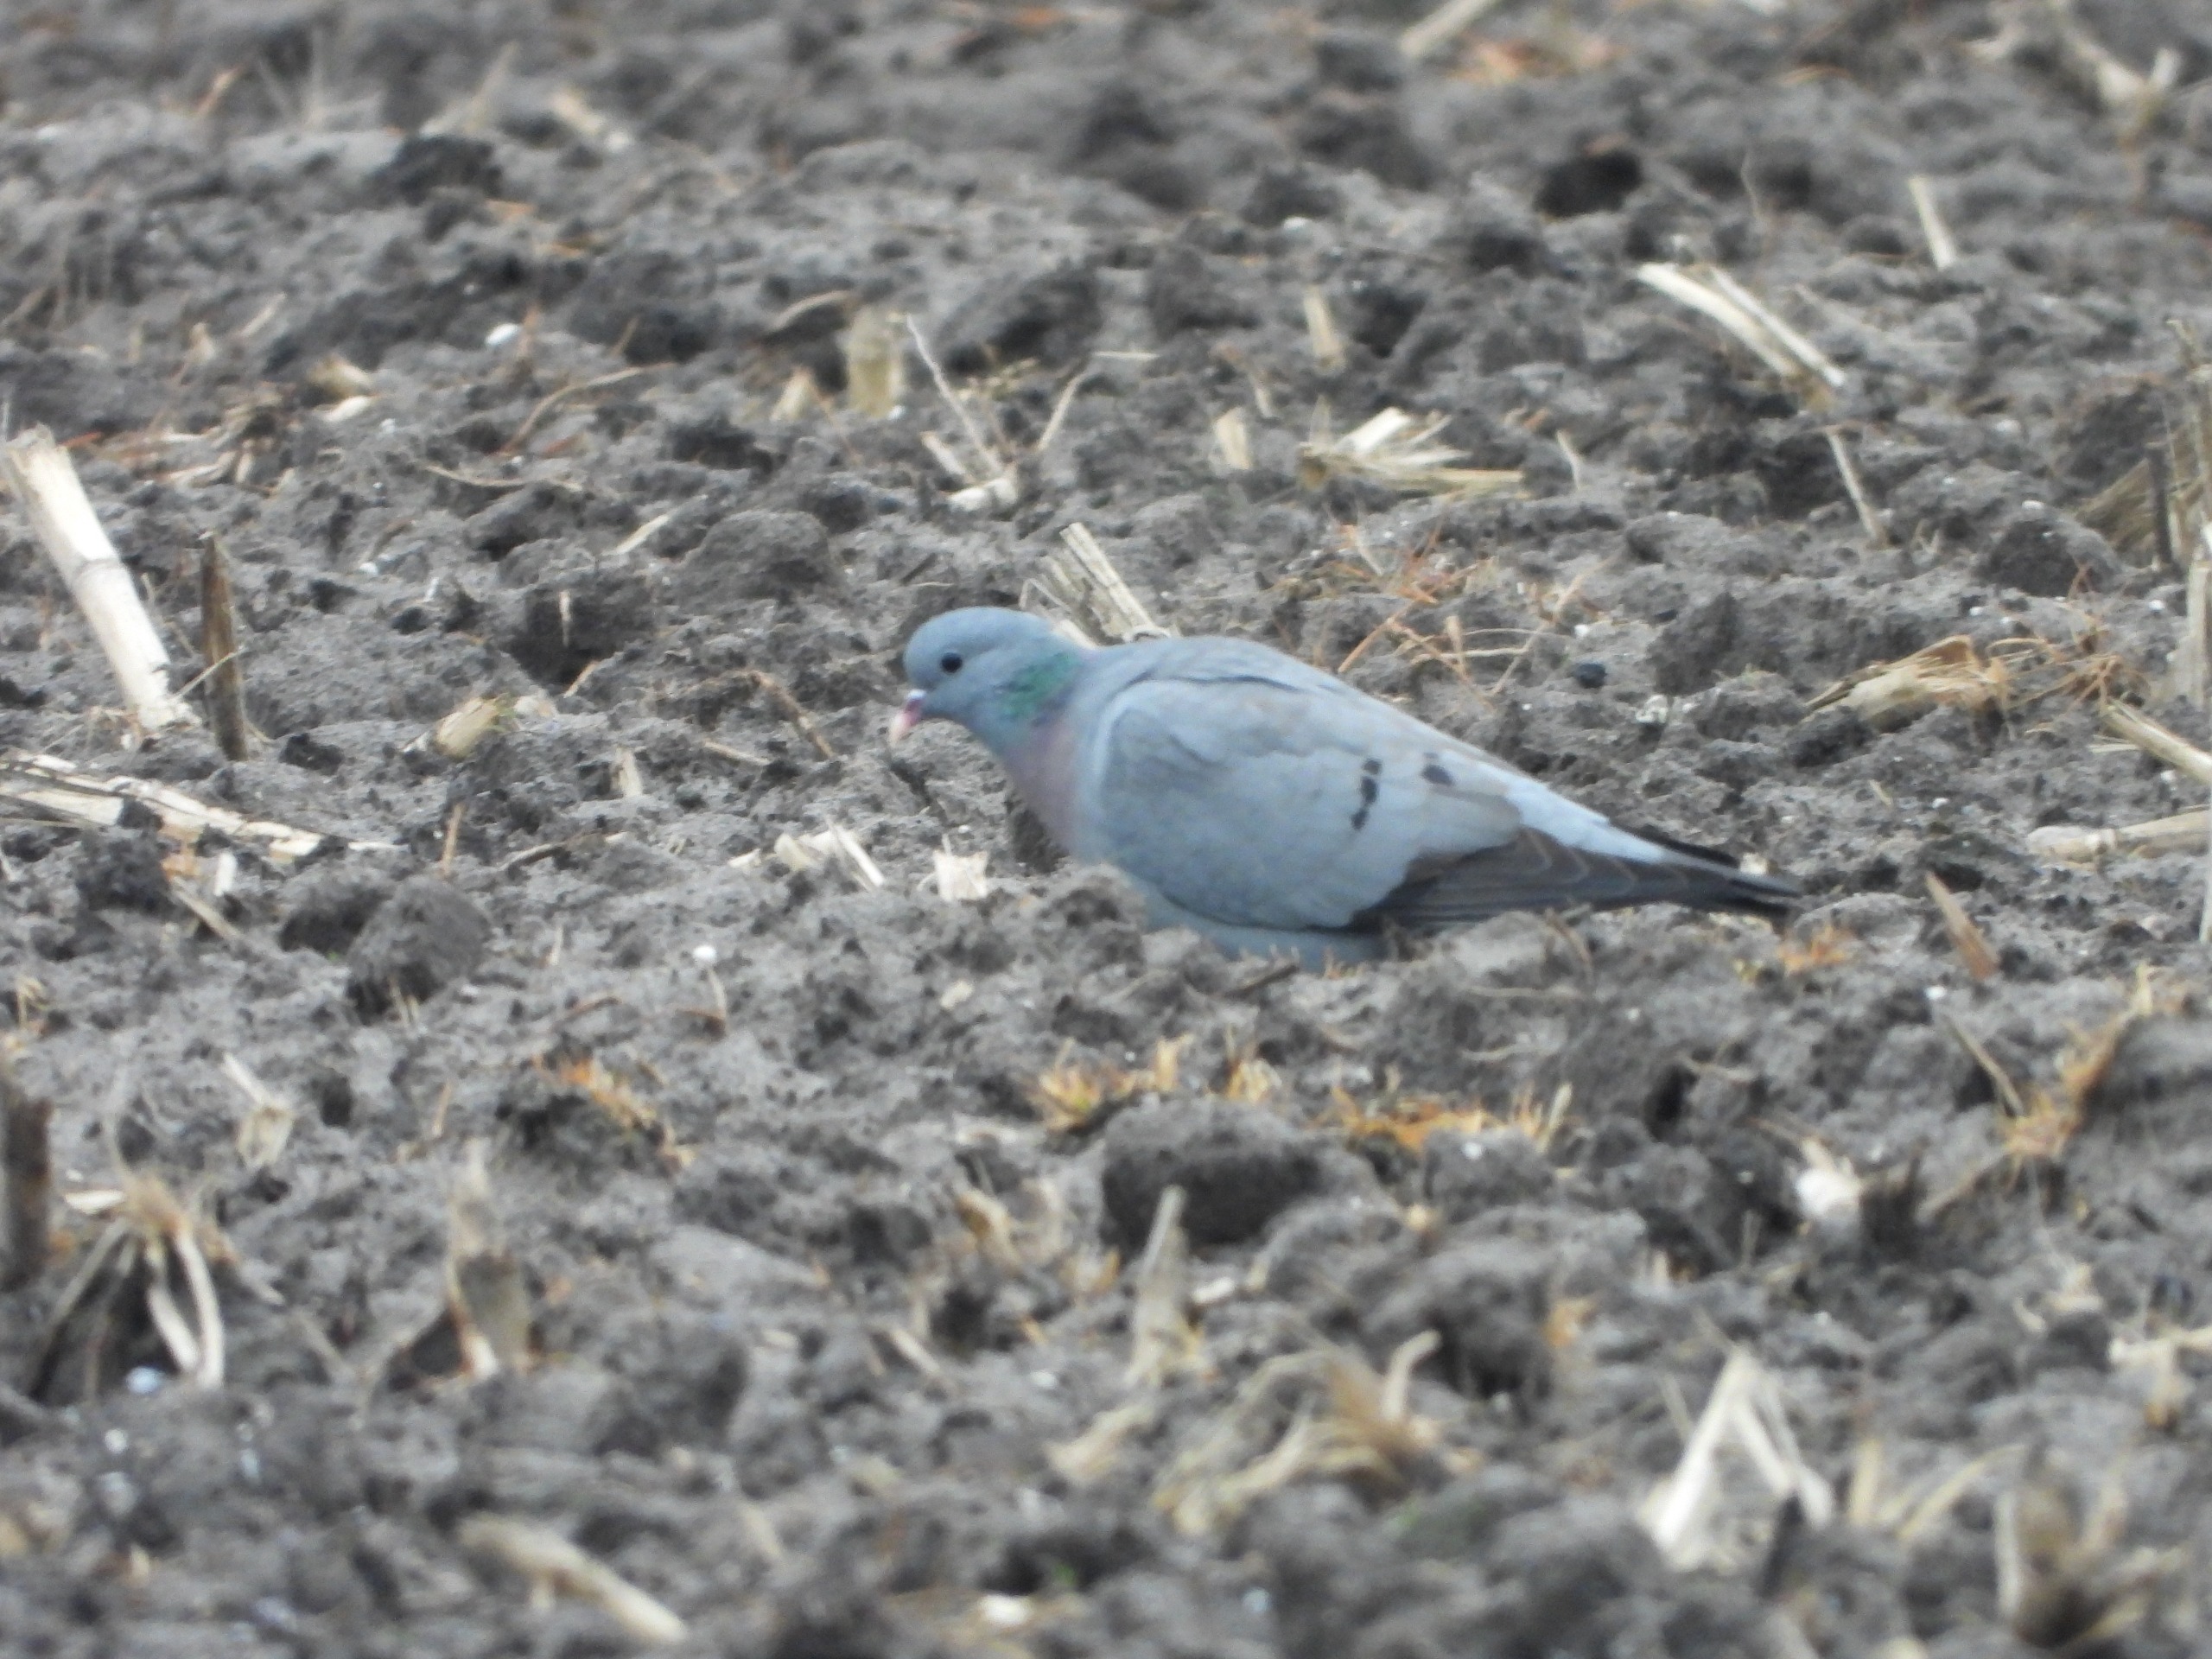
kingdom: Animalia
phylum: Chordata
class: Aves
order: Columbiformes
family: Columbidae
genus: Columba
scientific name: Columba oenas
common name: Huldue
